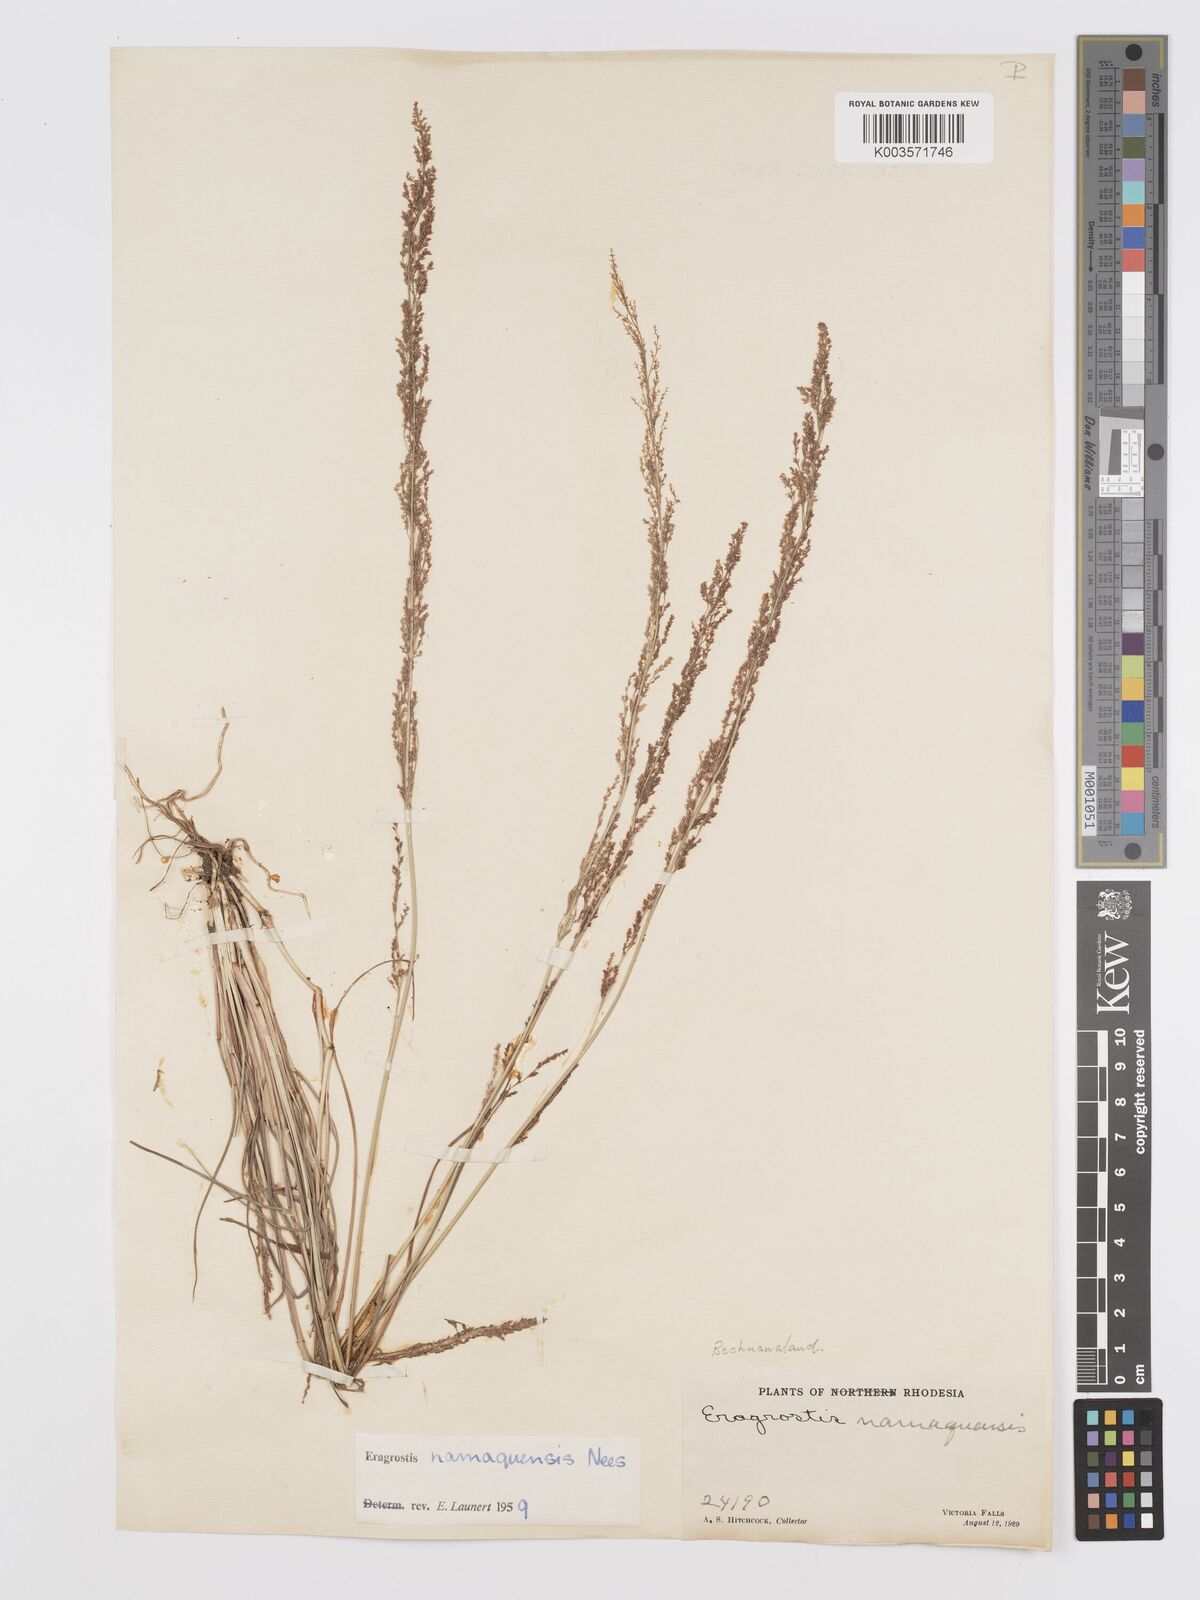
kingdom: Plantae
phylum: Tracheophyta
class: Liliopsida
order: Poales
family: Poaceae
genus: Eragrostis
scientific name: Eragrostis japonica
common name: Pond lovegrass
